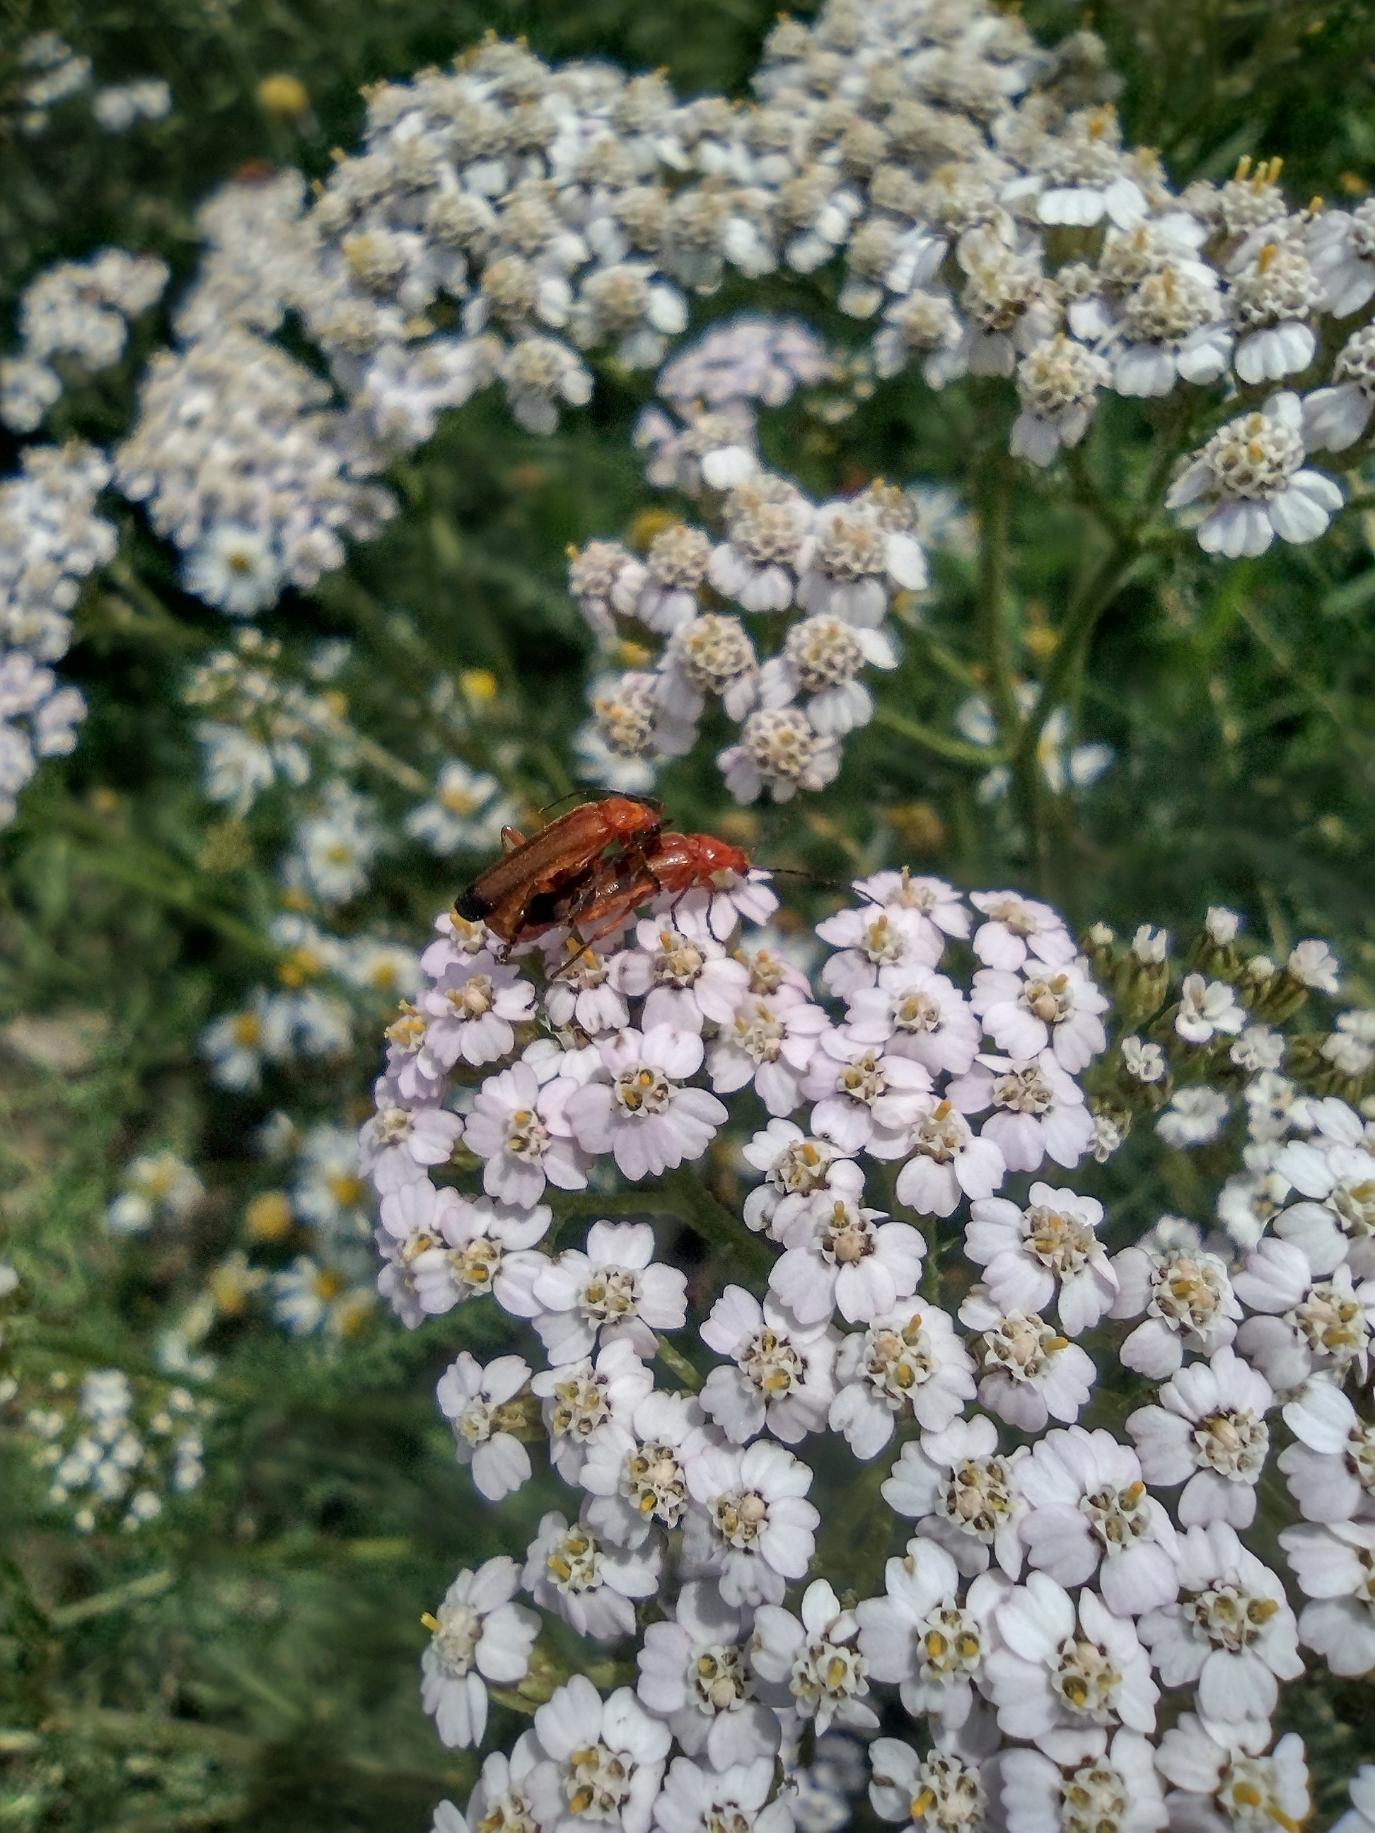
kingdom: Animalia
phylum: Arthropoda
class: Insecta
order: Coleoptera
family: Cantharidae
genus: Rhagonycha
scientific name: Rhagonycha fulva
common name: Præstebille
